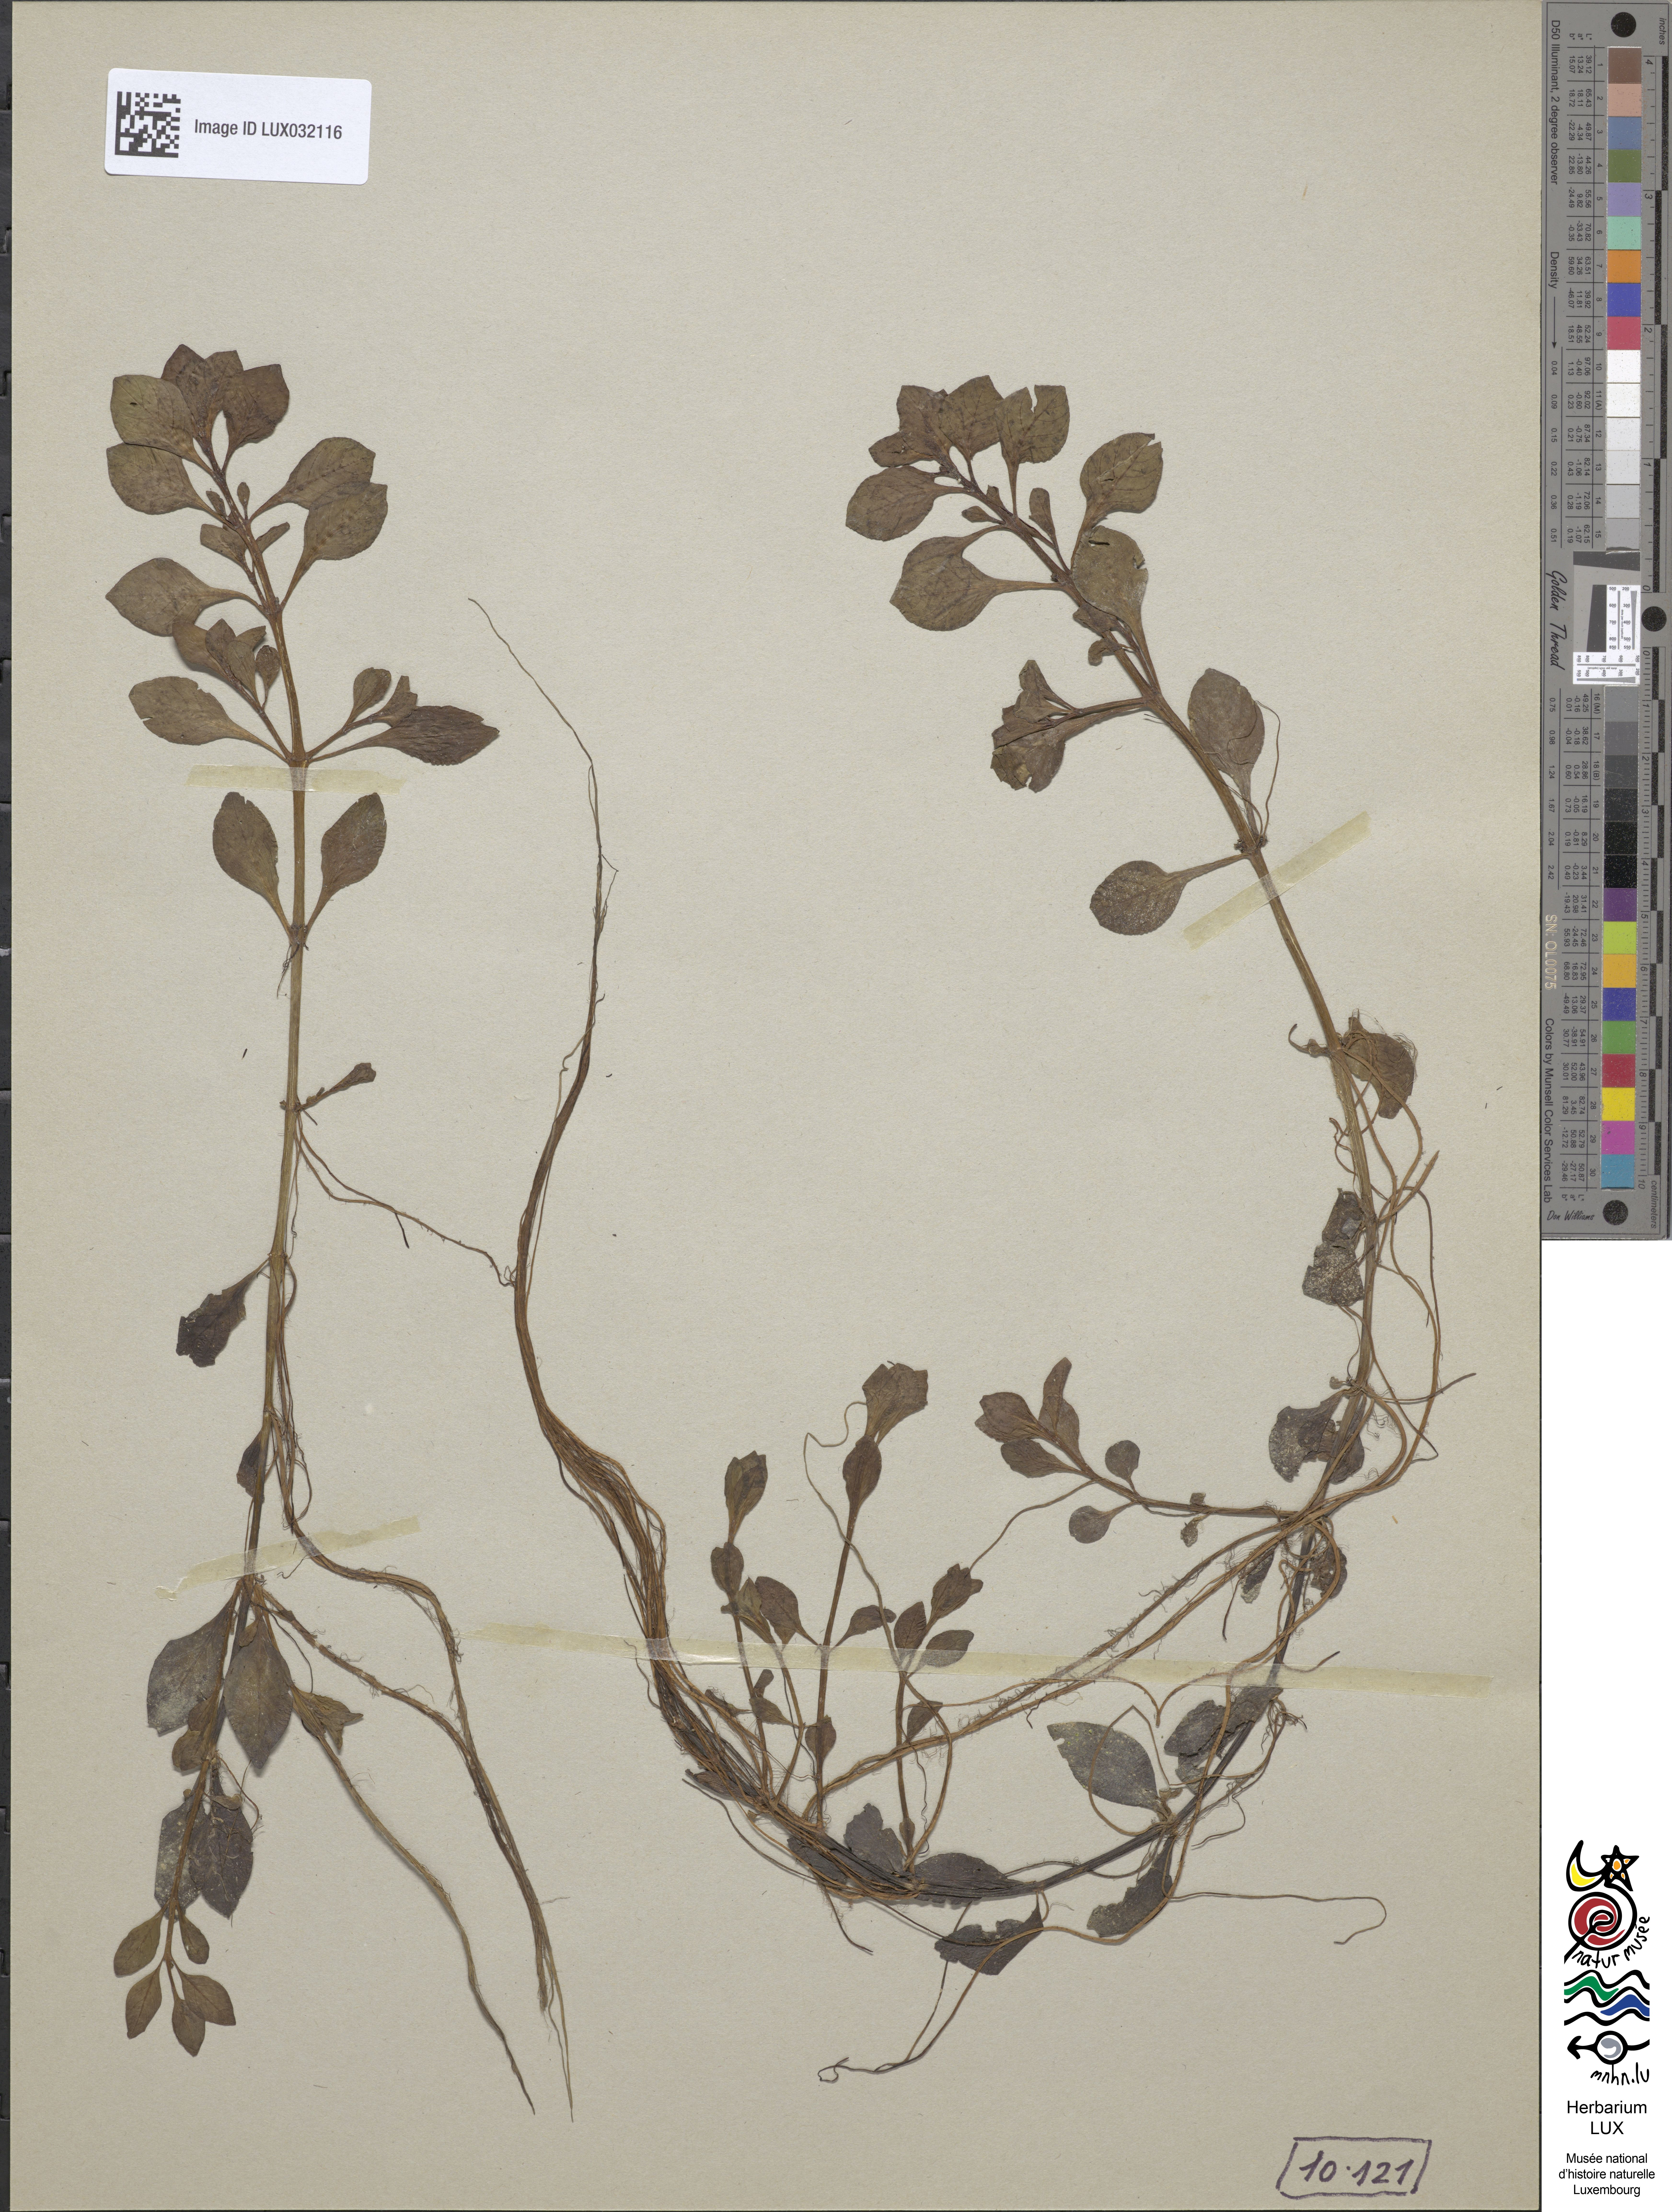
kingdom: Plantae
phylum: Tracheophyta
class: Magnoliopsida
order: Myrtales
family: Onagraceae
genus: Ludwigia
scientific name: Ludwigia palustris
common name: Hampshire-purslane
